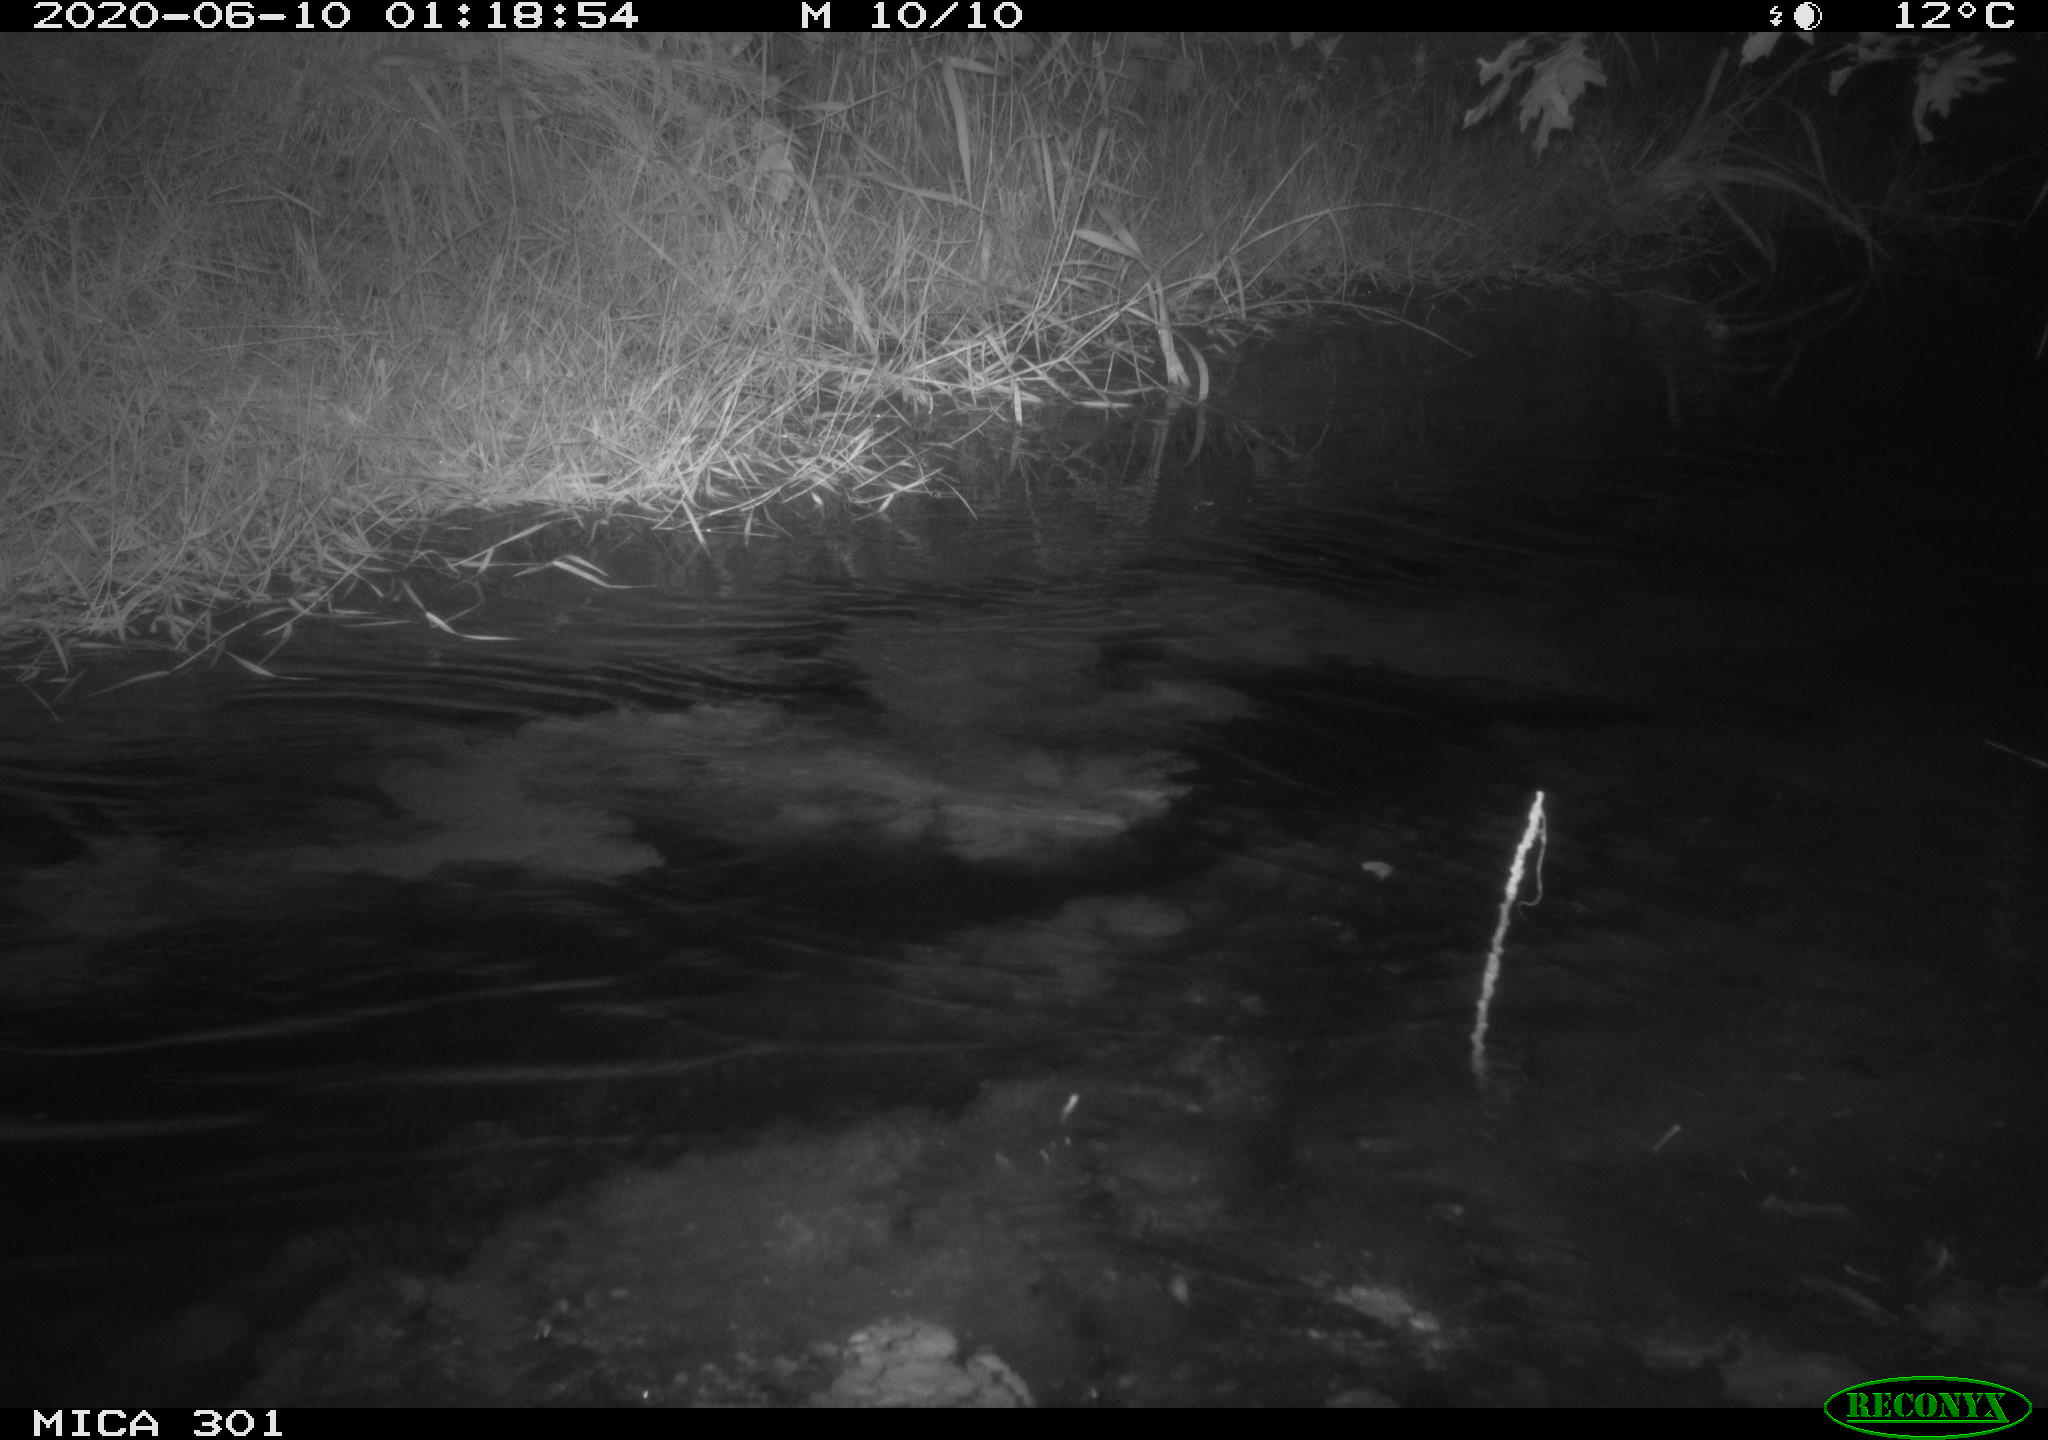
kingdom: Animalia
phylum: Chordata
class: Mammalia
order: Rodentia
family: Castoridae
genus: Castor
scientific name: Castor fiber
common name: Eurasian beaver
